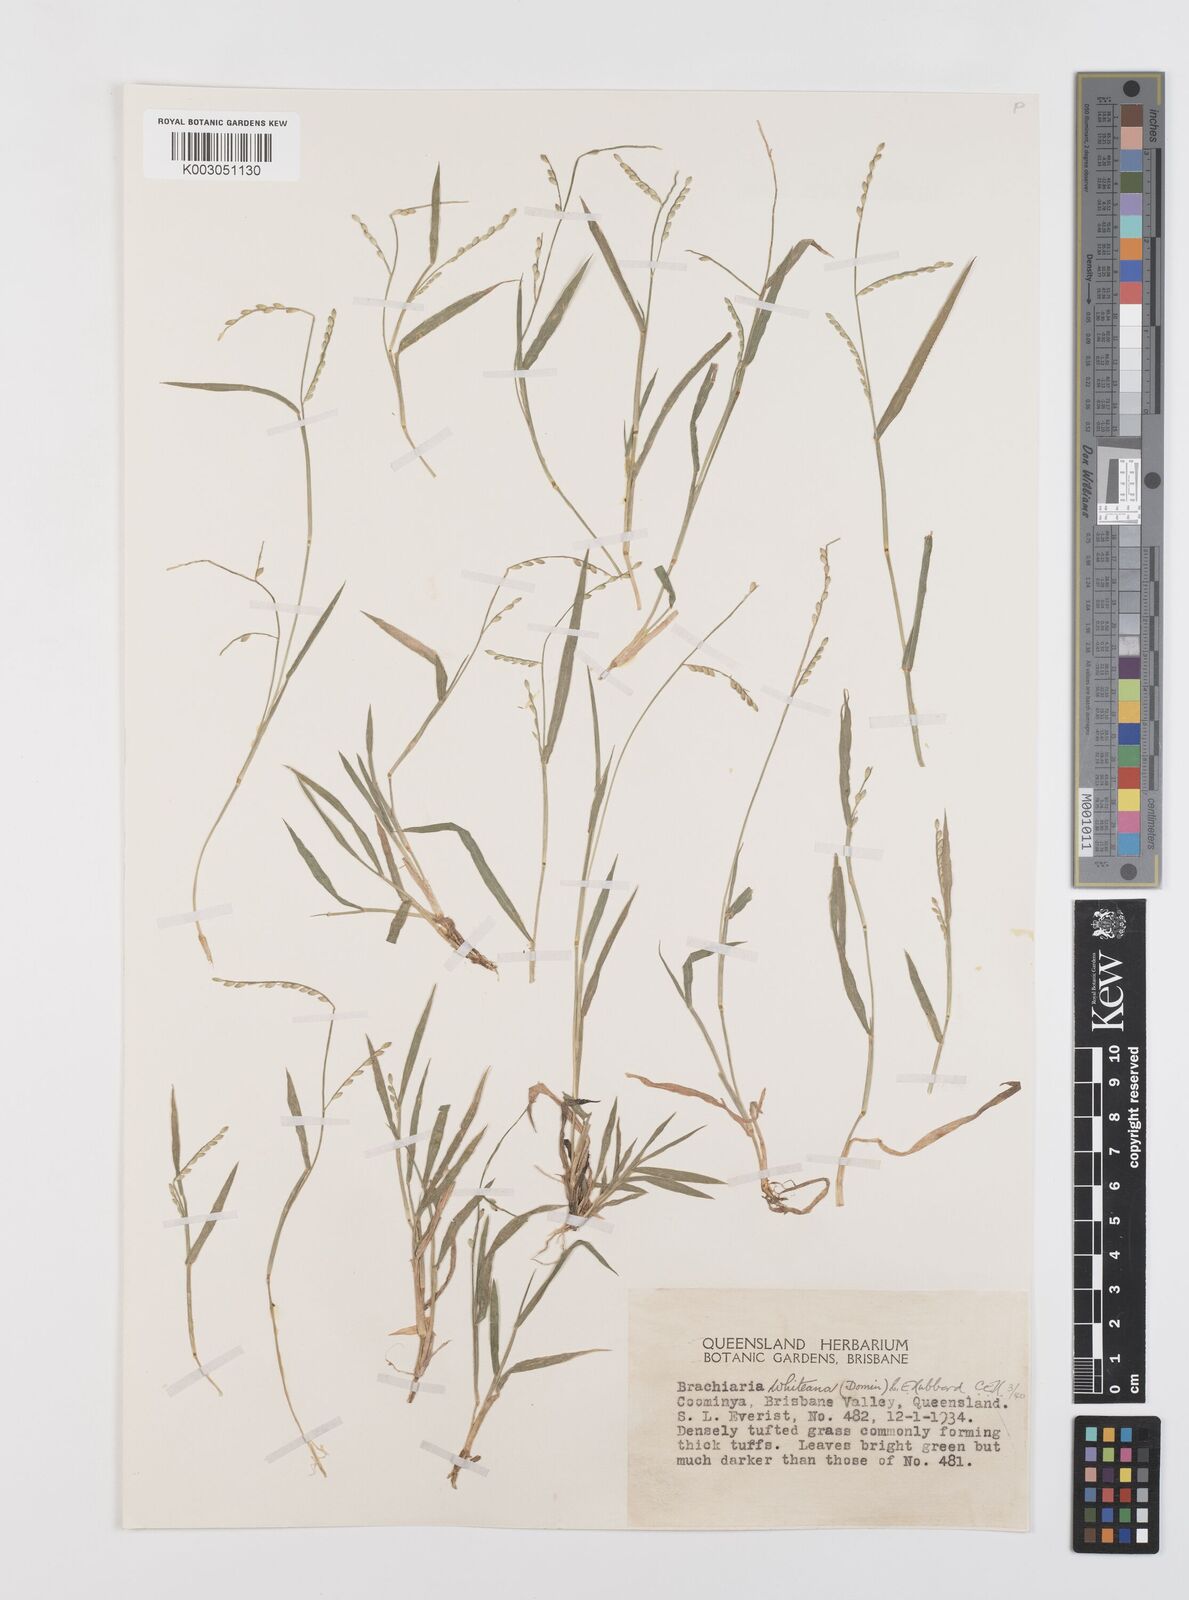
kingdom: Plantae
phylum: Tracheophyta
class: Liliopsida
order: Poales
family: Poaceae
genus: Urochloa
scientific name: Urochloa whiteana
